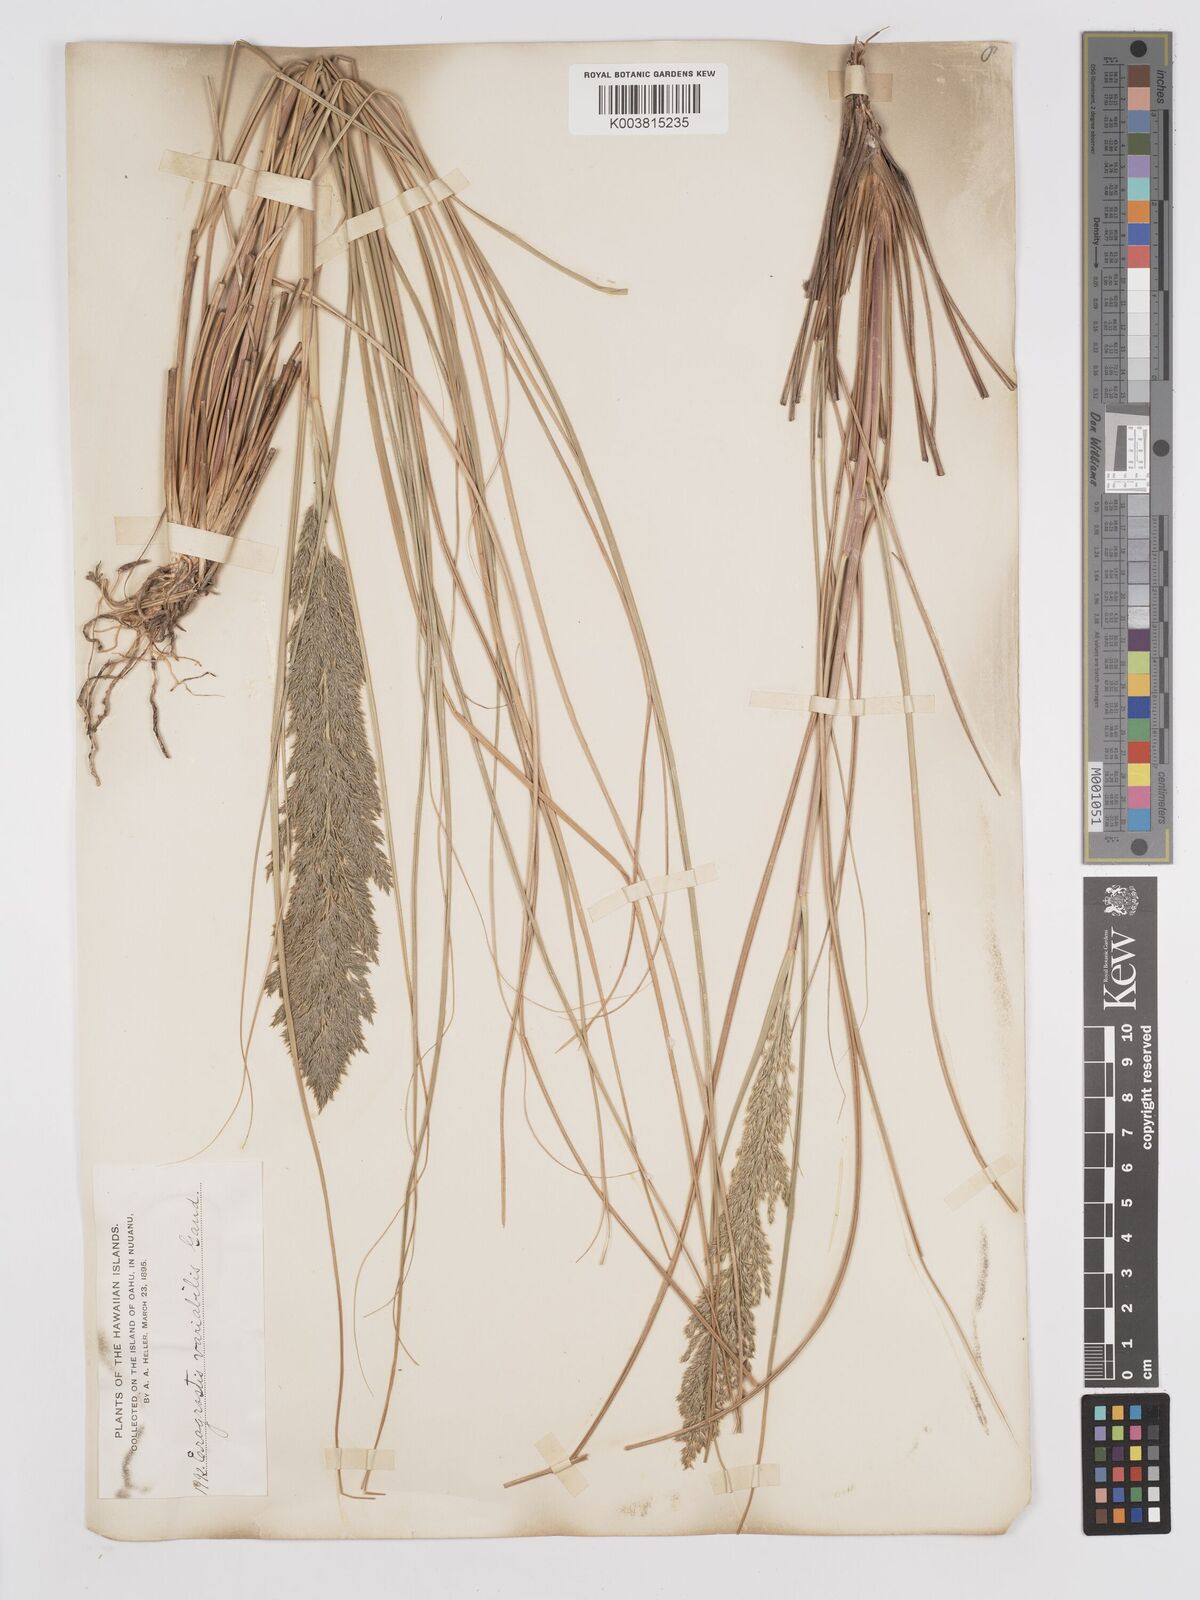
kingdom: Plantae
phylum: Tracheophyta
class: Liliopsida
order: Poales
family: Poaceae
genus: Eragrostis
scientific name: Eragrostis variabilis
